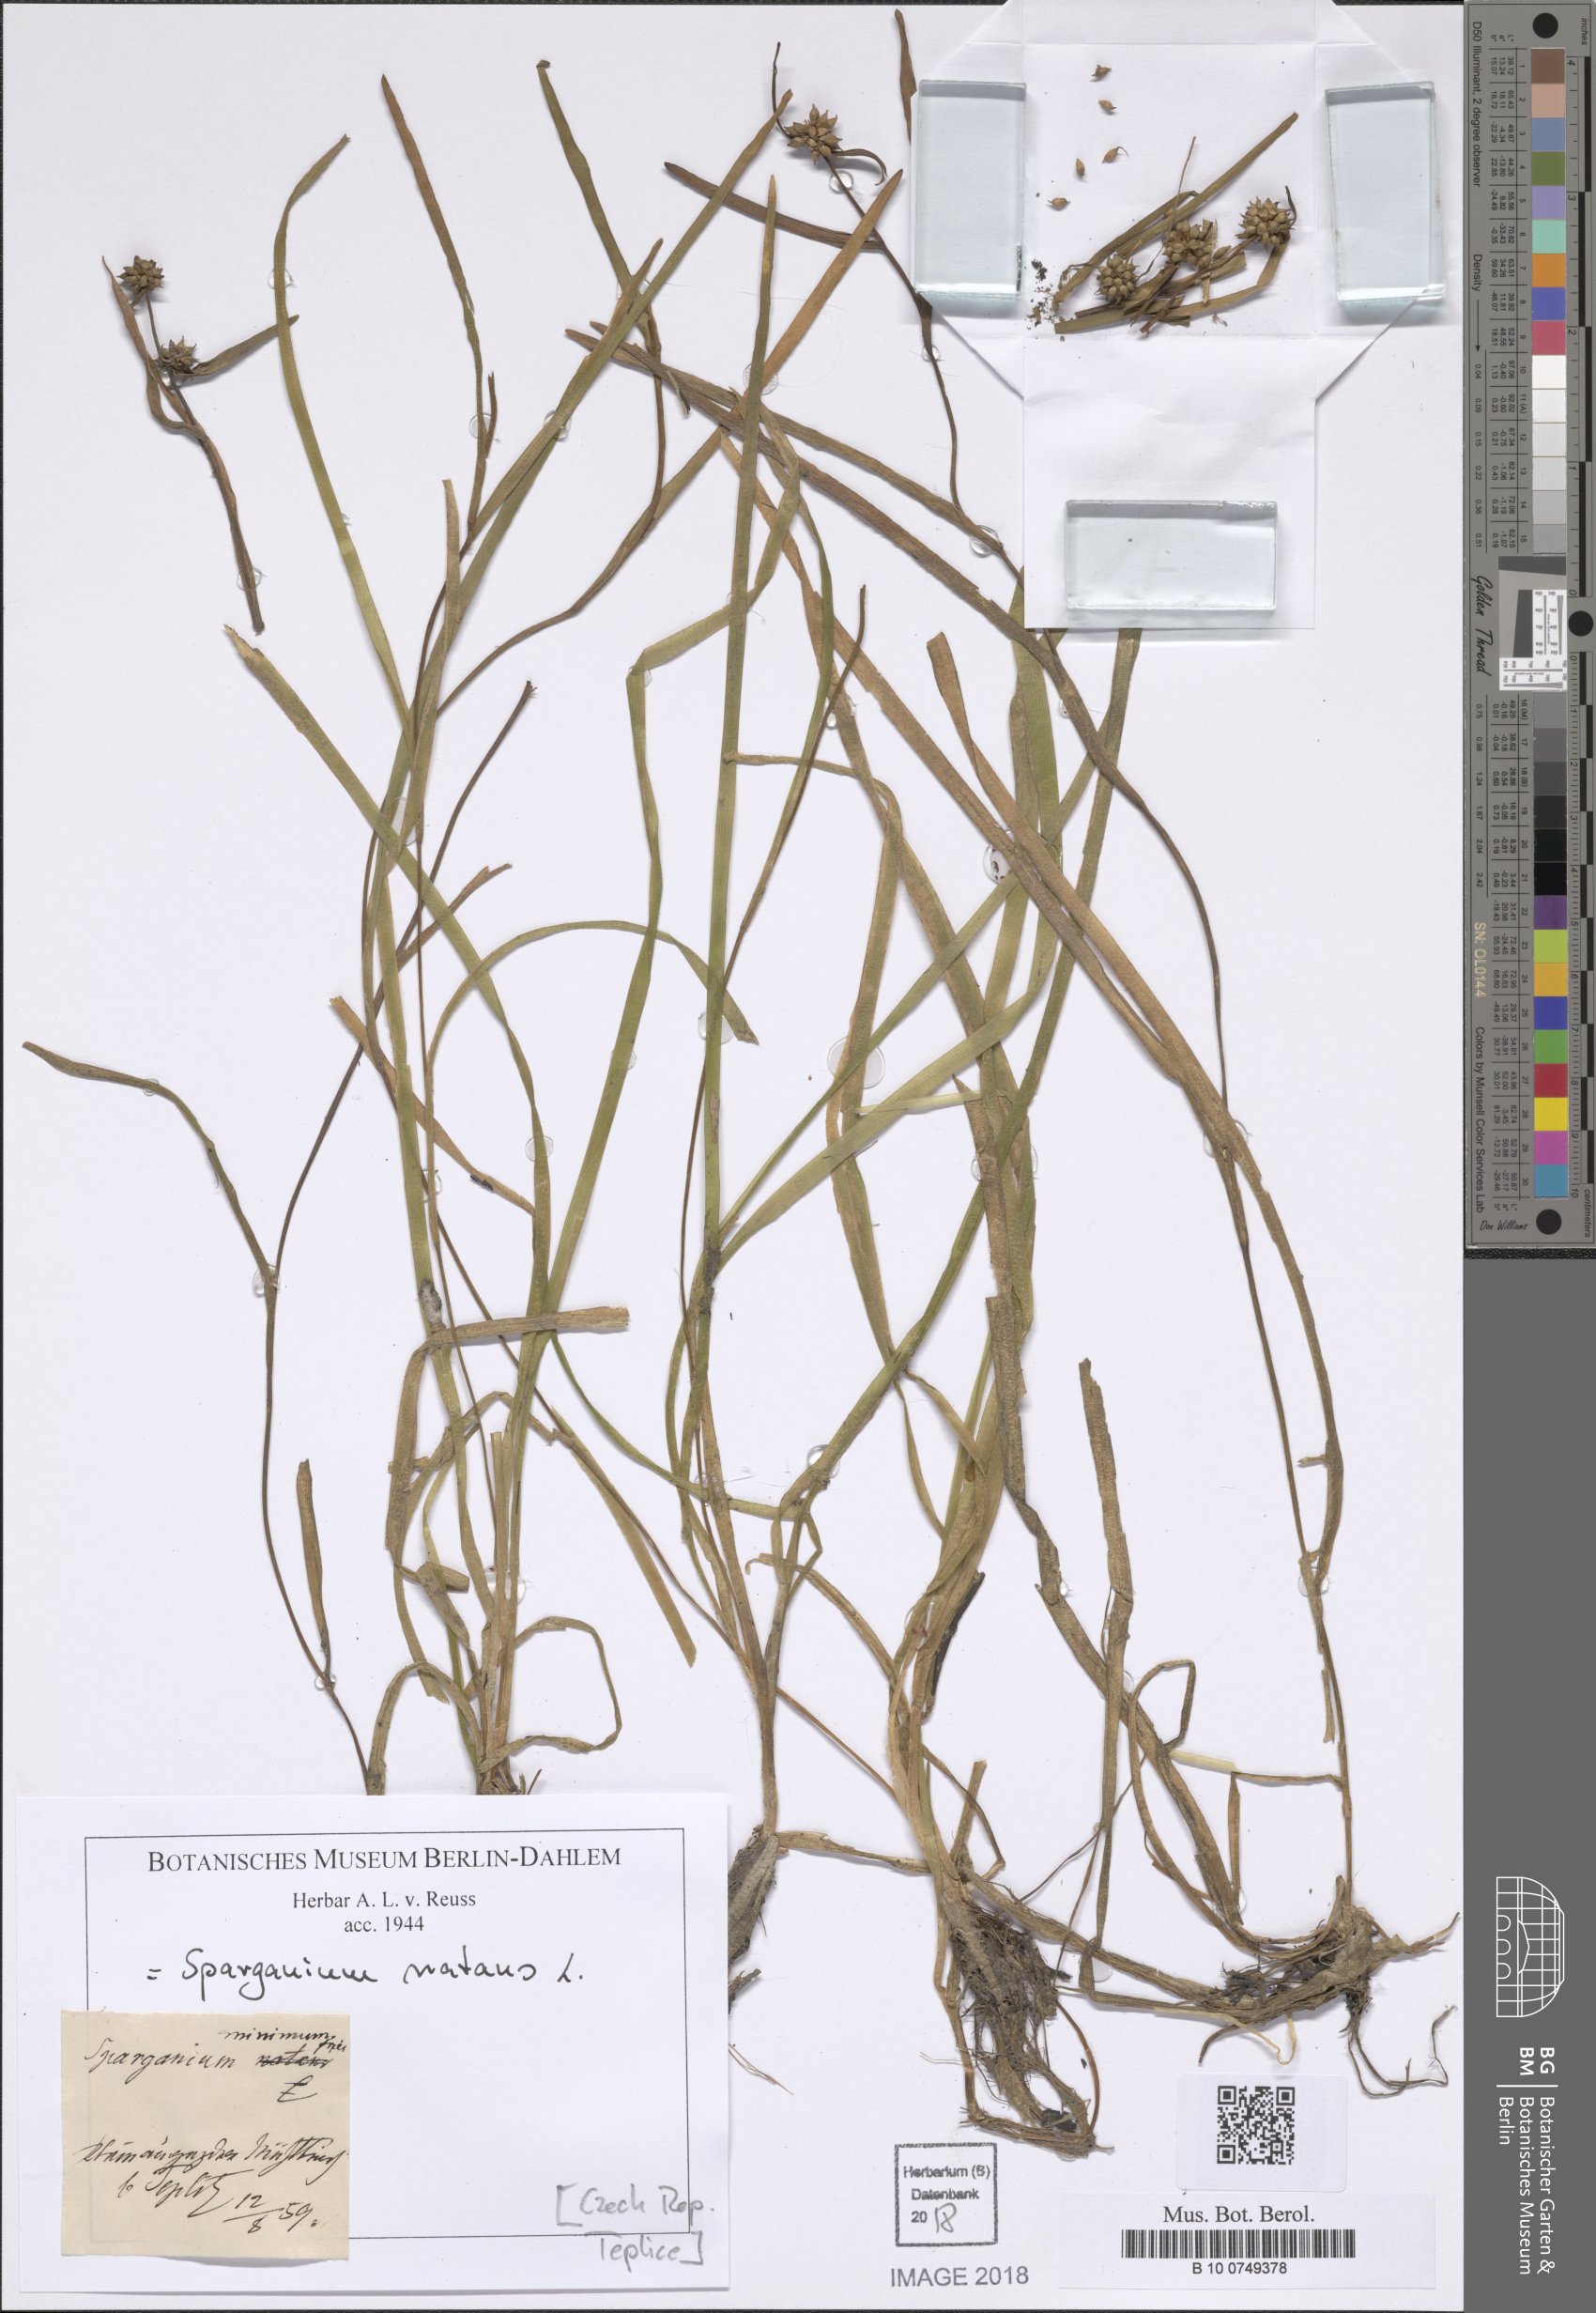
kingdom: Plantae
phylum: Tracheophyta
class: Liliopsida
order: Poales
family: Typhaceae
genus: Sparganium
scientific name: Sparganium natans
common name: Least bur-reed
